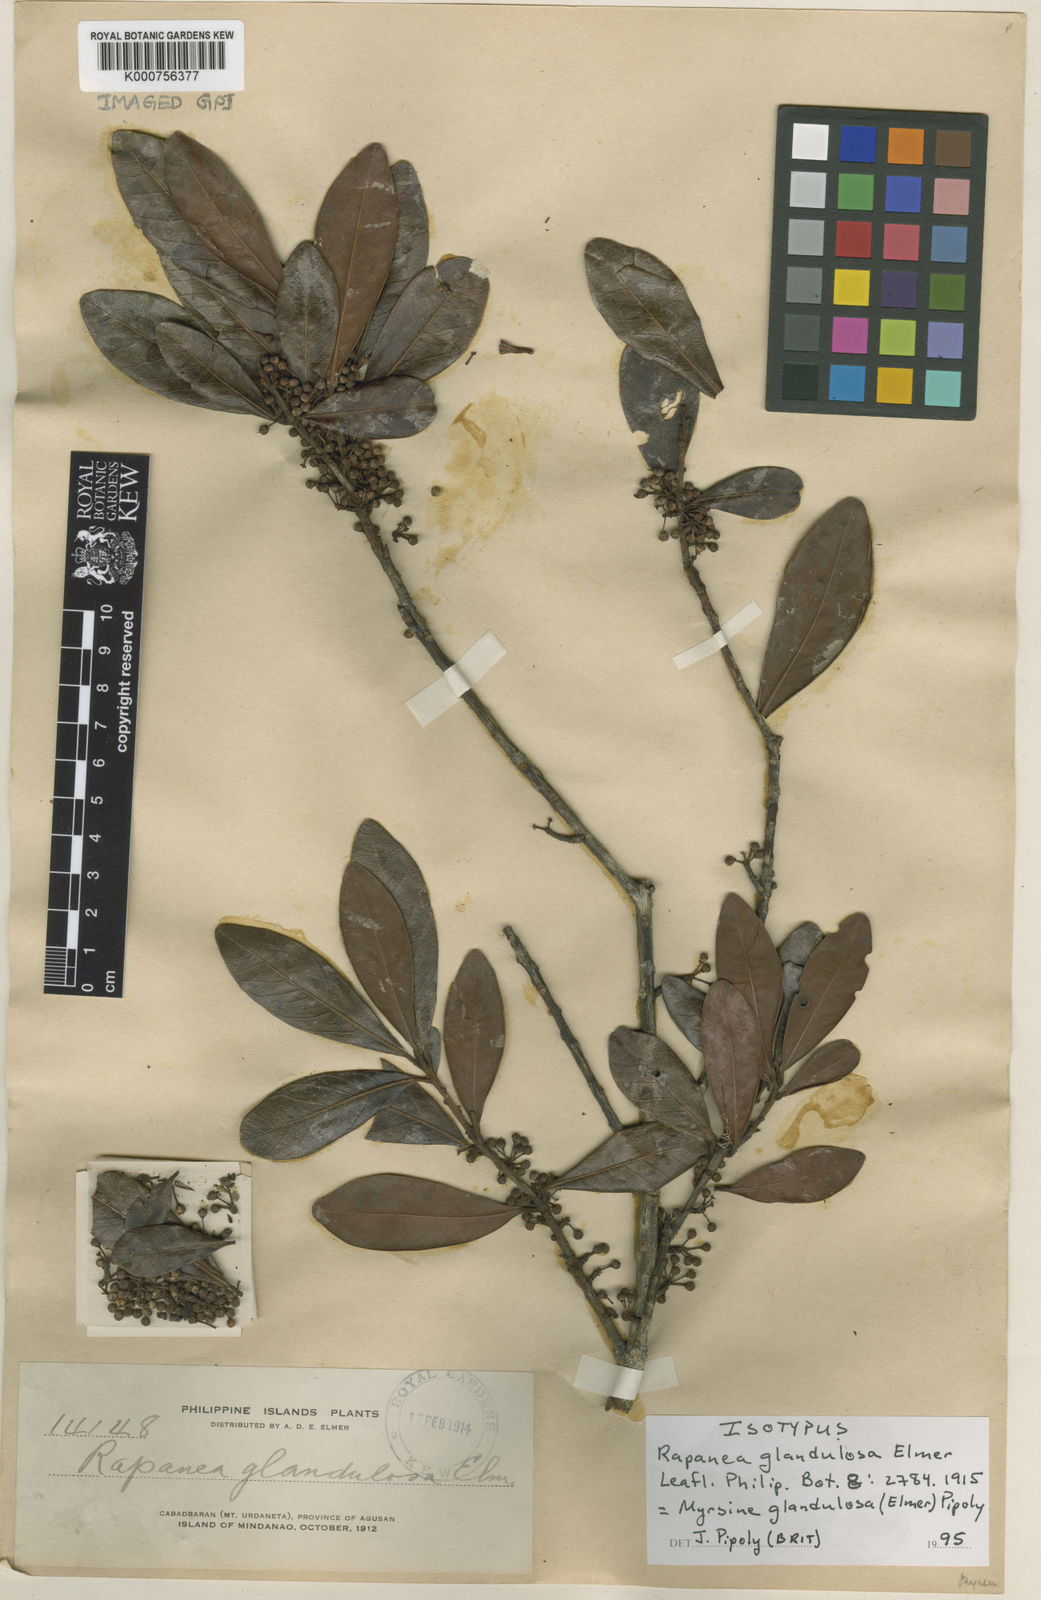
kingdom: Plantae
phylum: Tracheophyta
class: Magnoliopsida
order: Ericales
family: Primulaceae
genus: Myrsine
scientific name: Myrsine glandulosa
